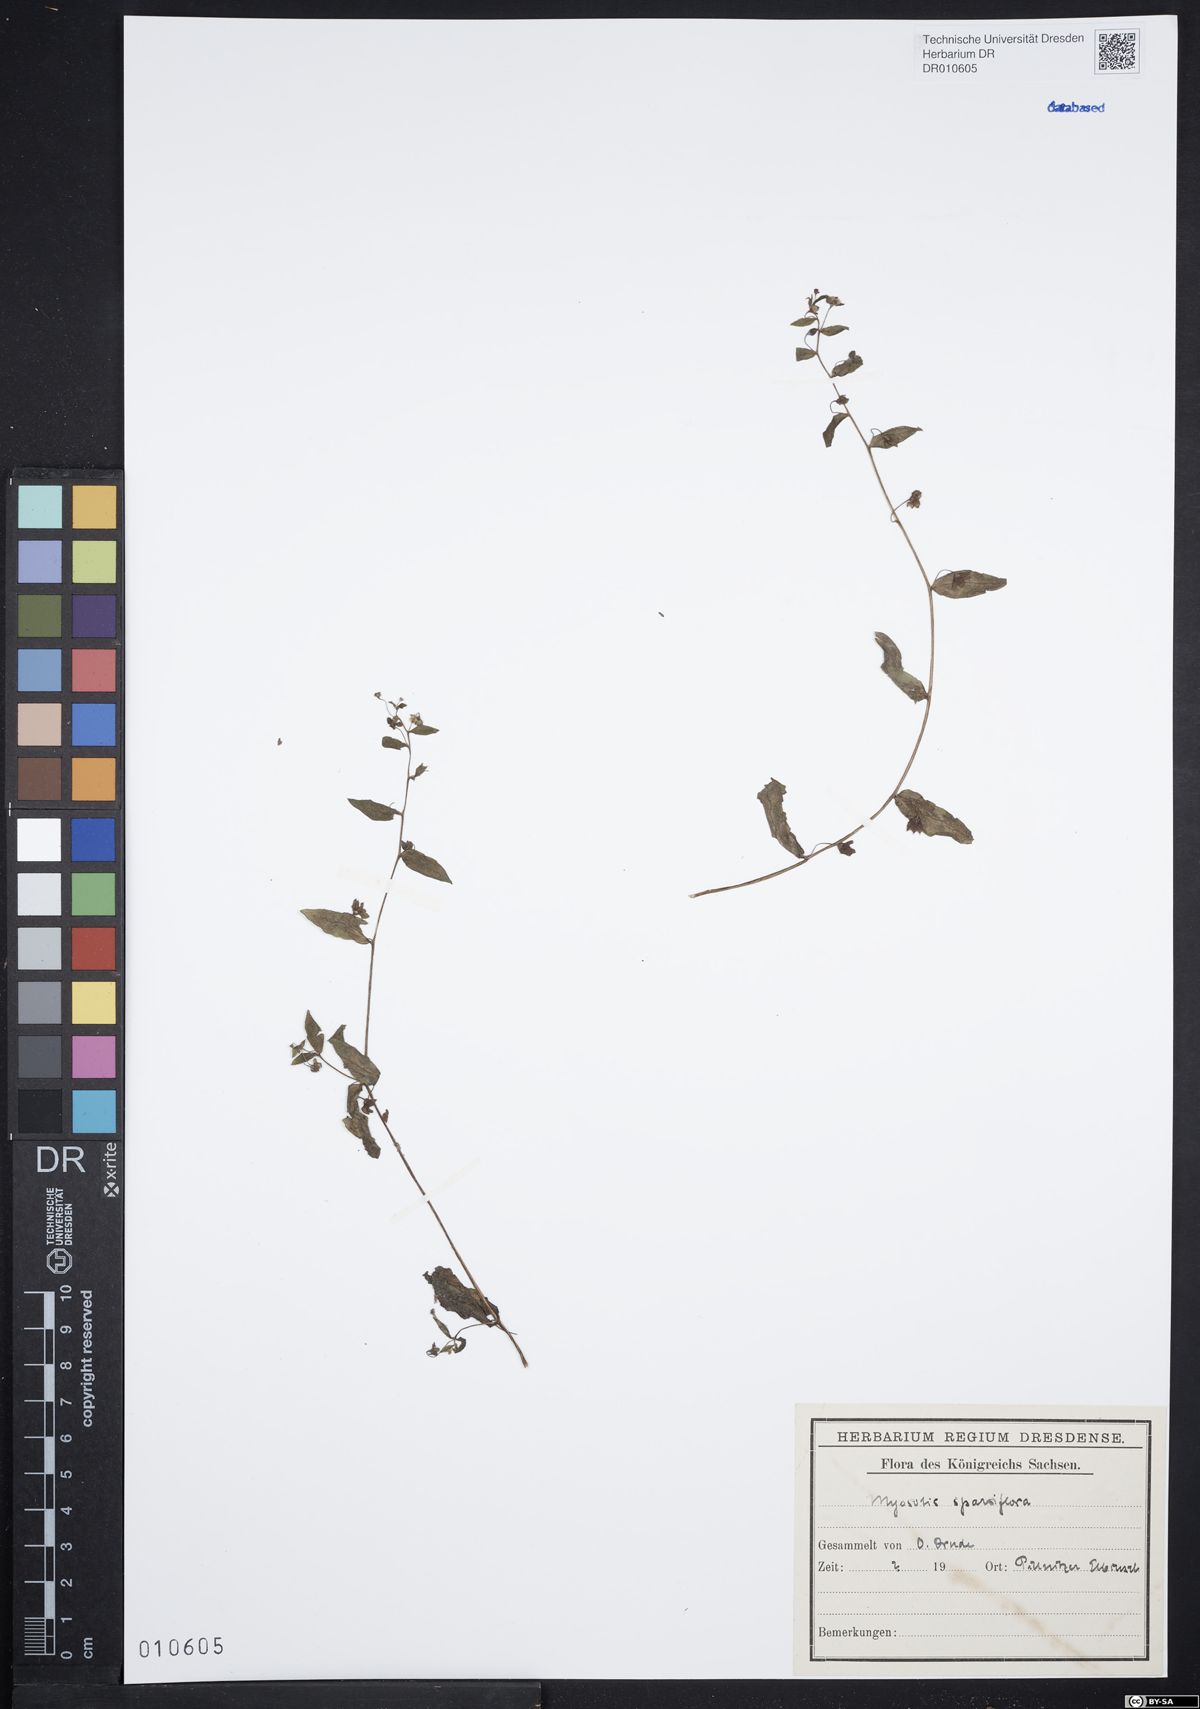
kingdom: Plantae
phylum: Tracheophyta
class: Magnoliopsida
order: Boraginales
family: Boraginaceae
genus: Myosotis
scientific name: Myosotis sparsiflora
